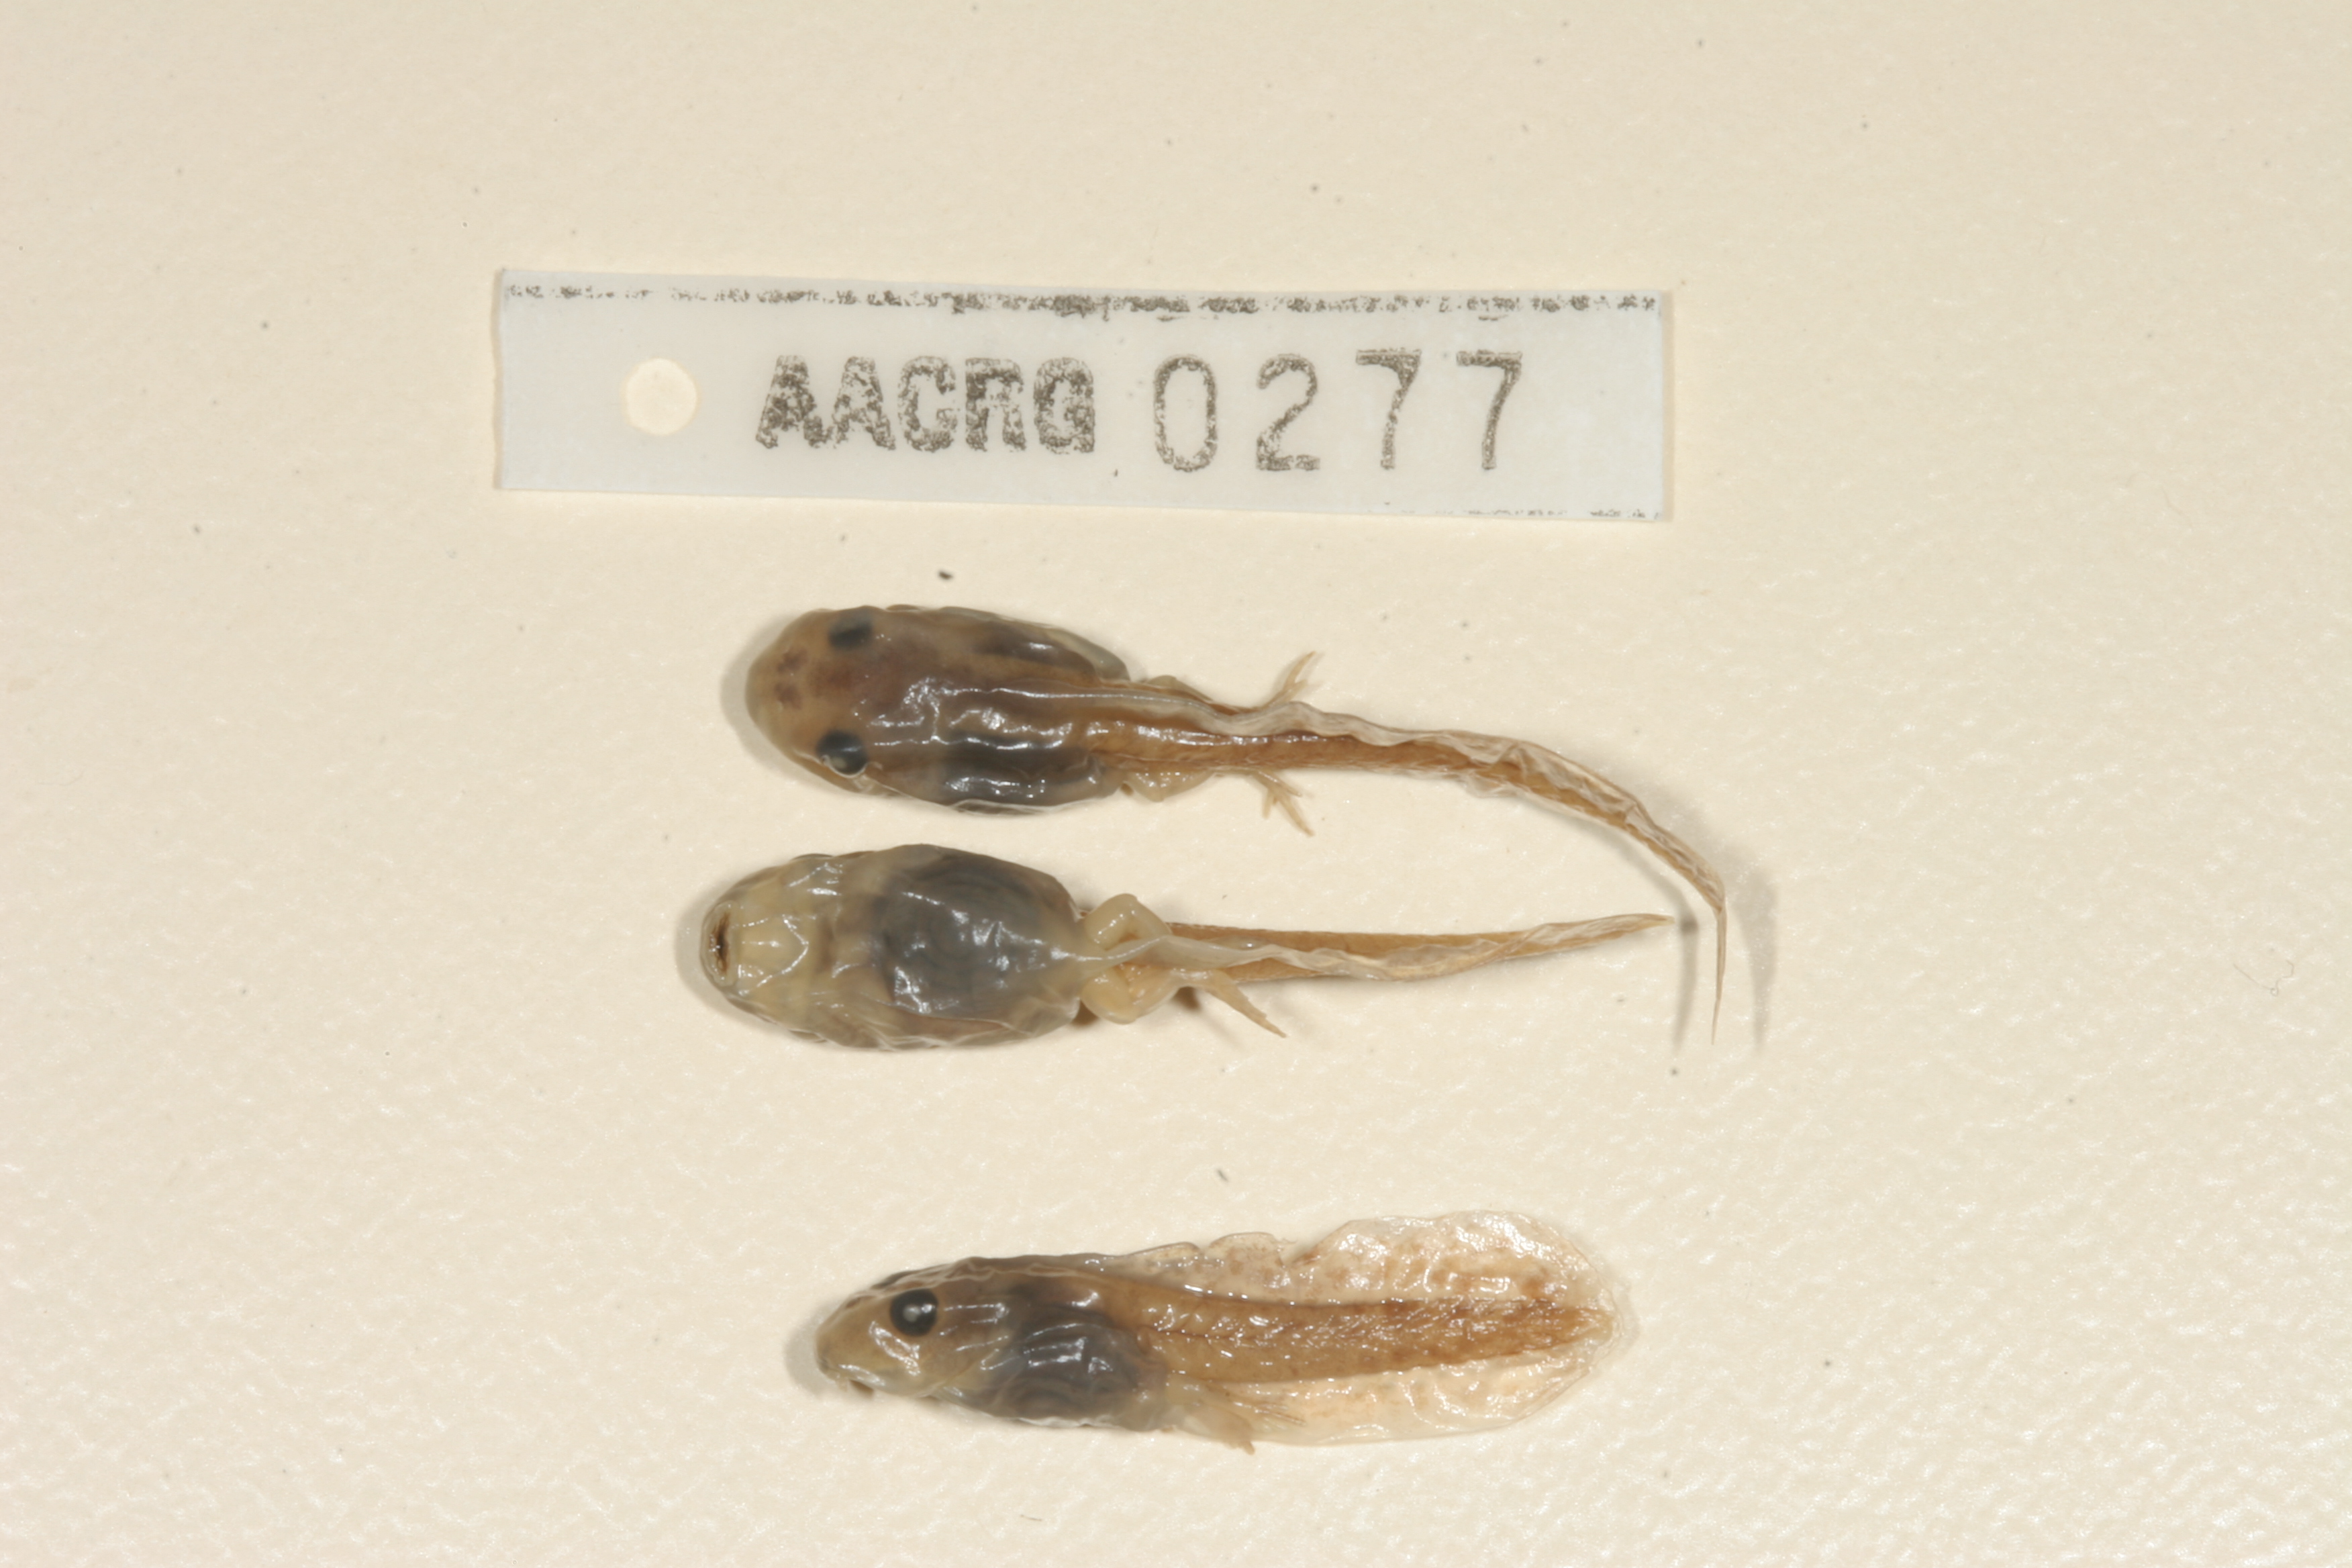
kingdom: Animalia
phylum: Chordata
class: Amphibia
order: Anura
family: Pyxicephalidae
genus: Cacosternum
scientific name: Cacosternum boettgeri
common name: Boettger's frog
